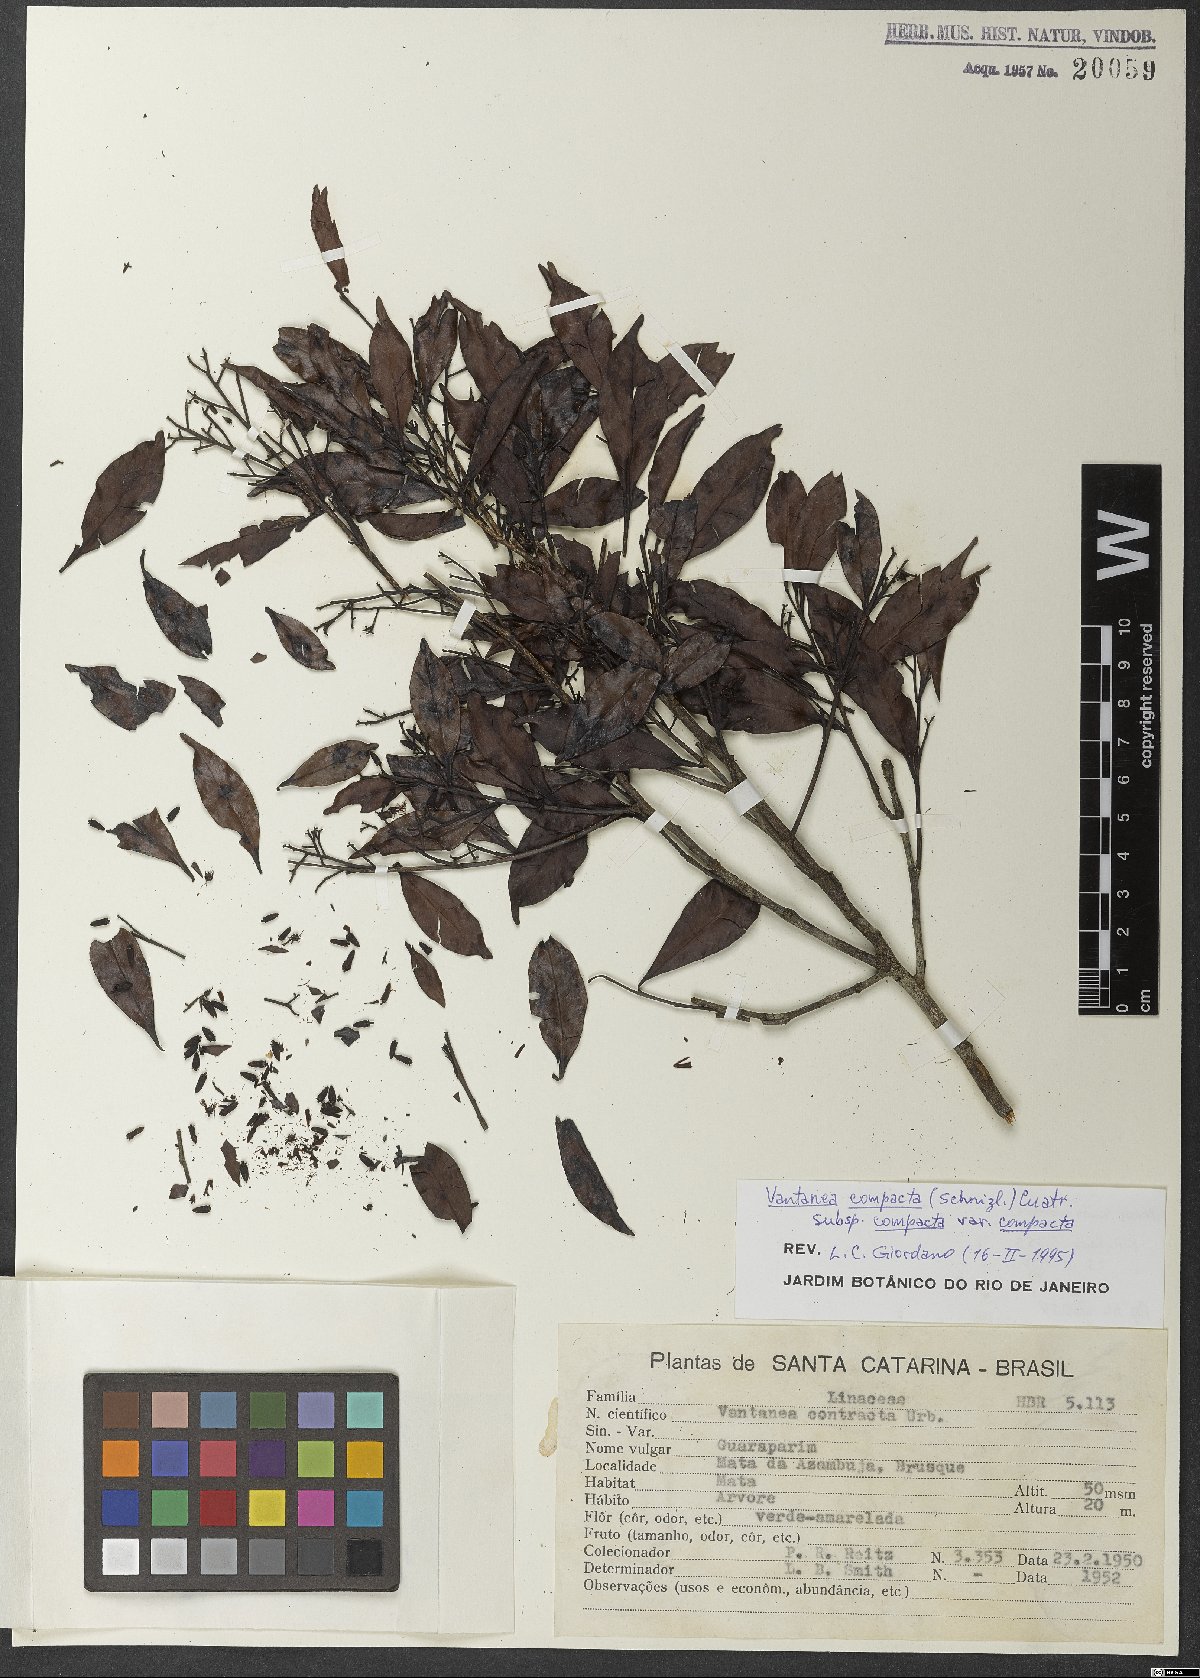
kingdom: Plantae
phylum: Tracheophyta
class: Magnoliopsida
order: Malpighiales
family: Humiriaceae
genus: Vantanea
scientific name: Vantanea compacta
